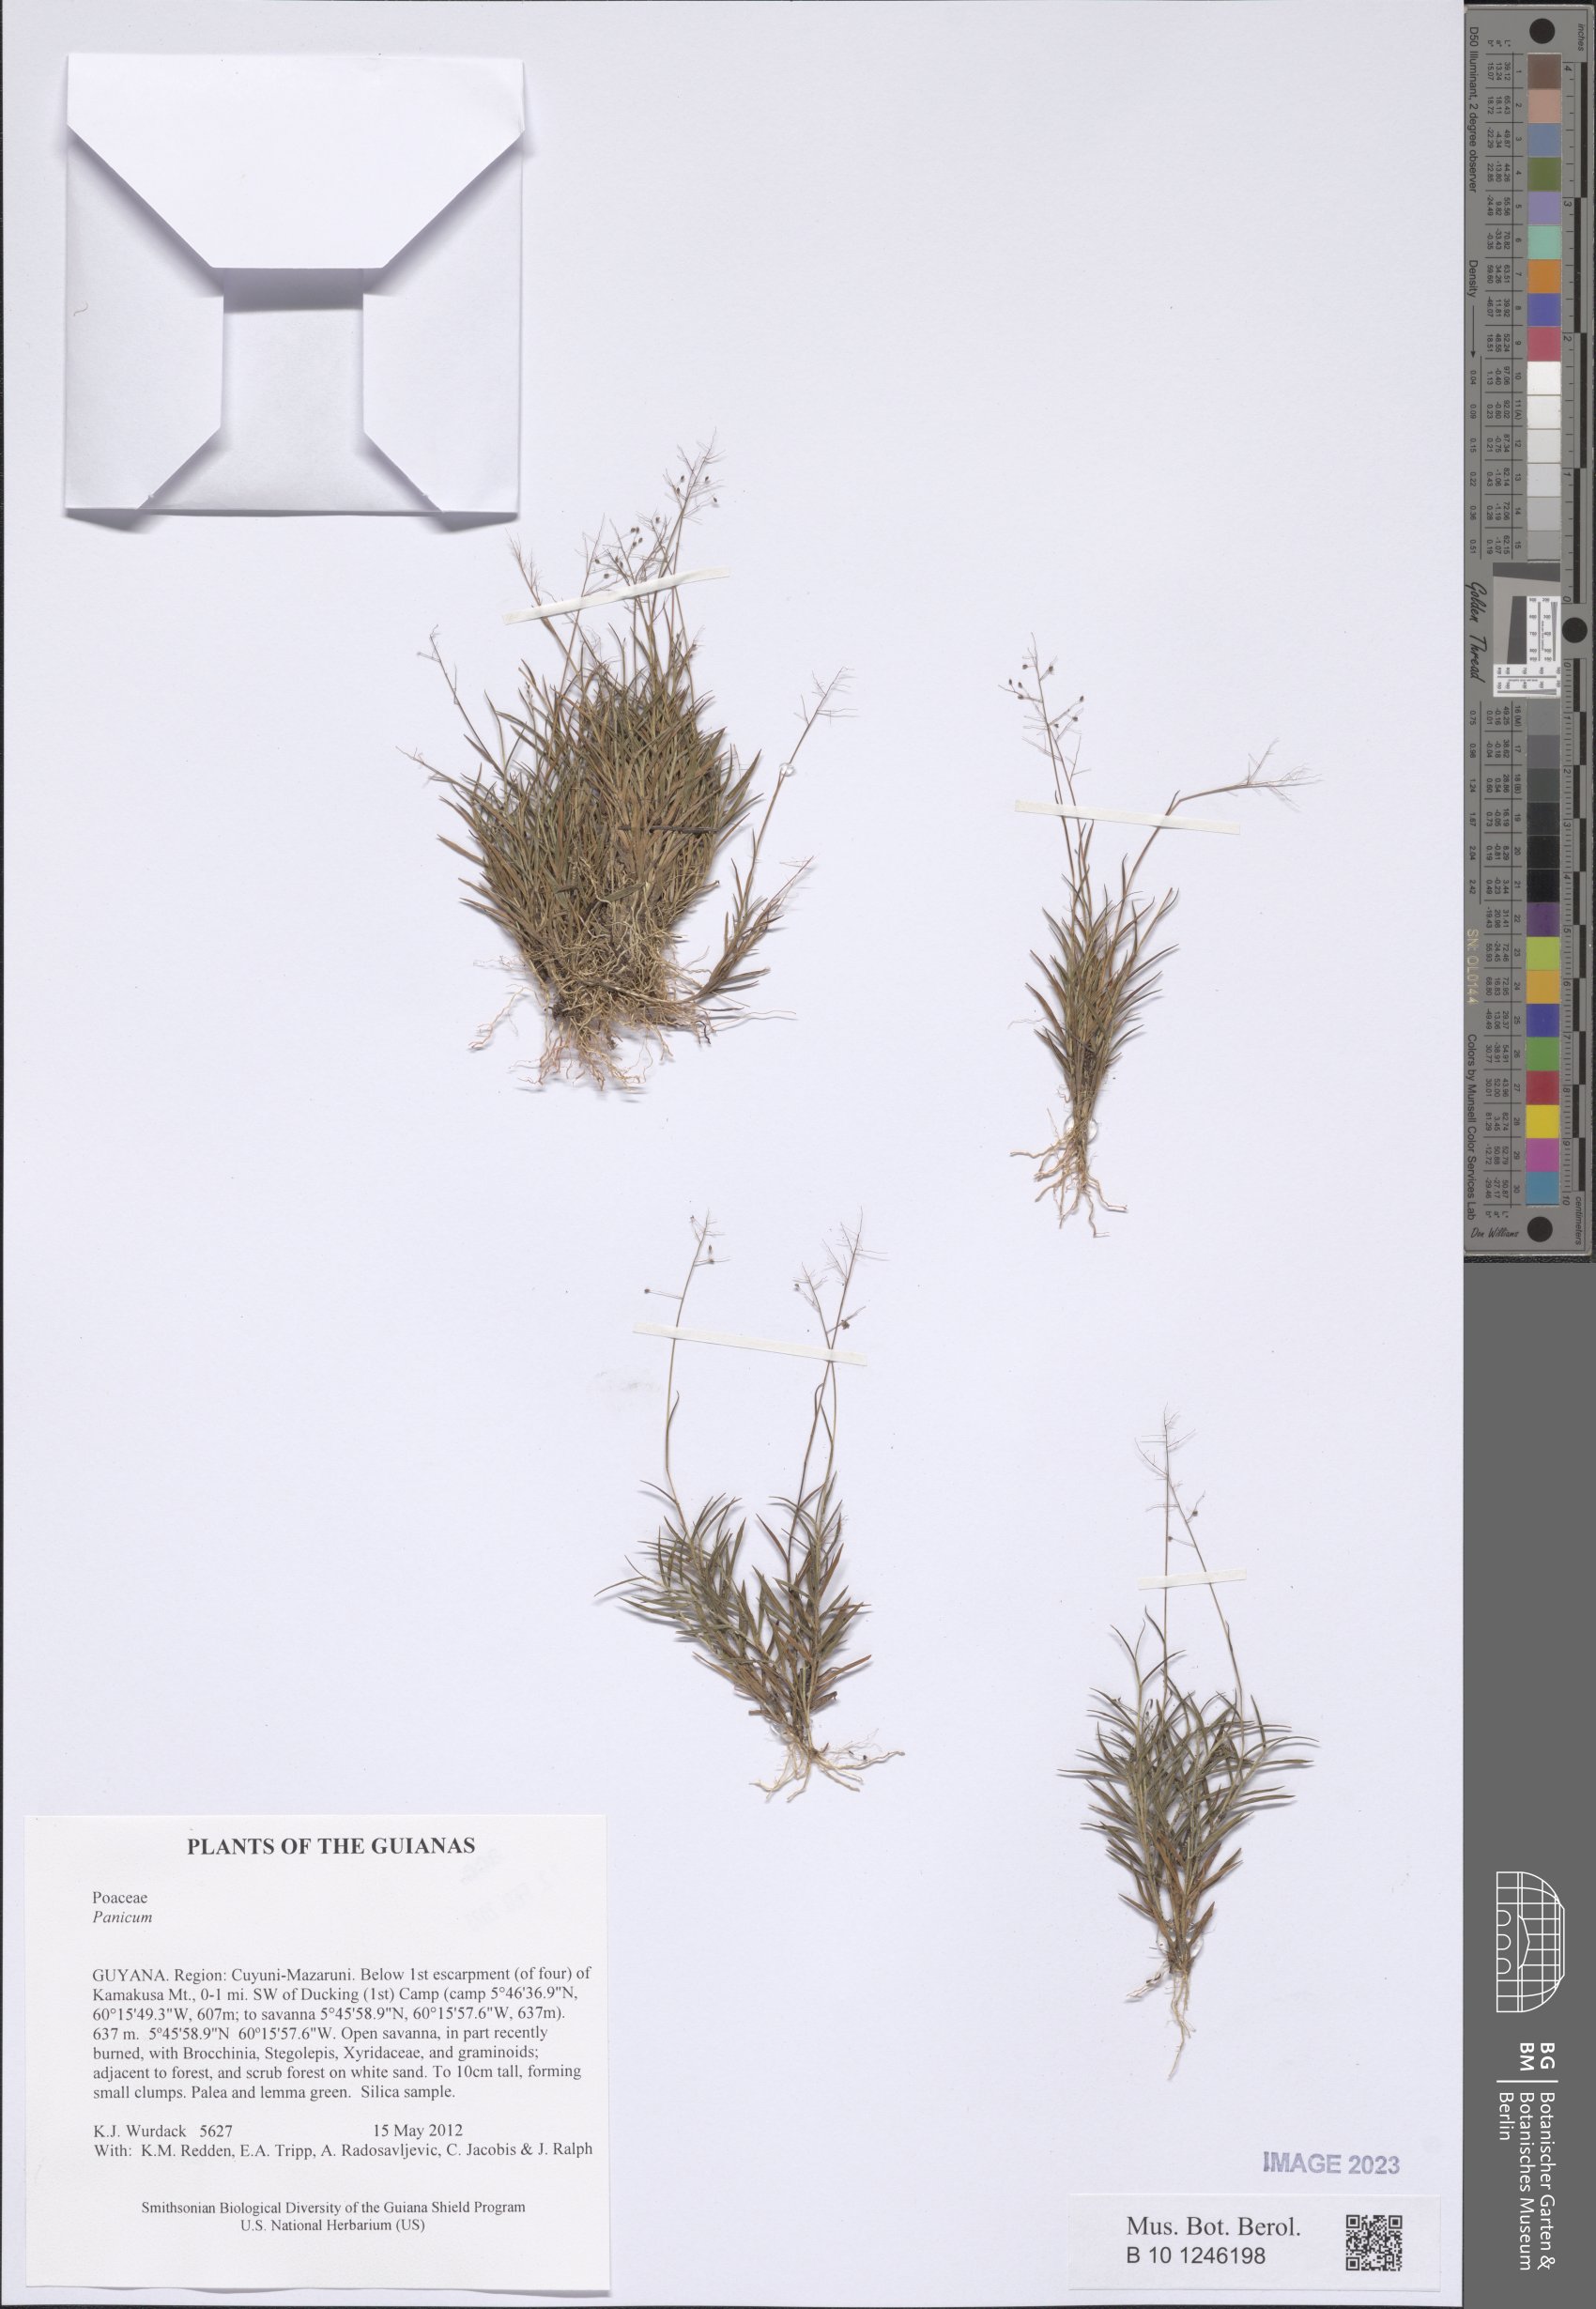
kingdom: Plantae
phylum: Tracheophyta
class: Liliopsida
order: Poales
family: Poaceae
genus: Panicum
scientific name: Panicum
